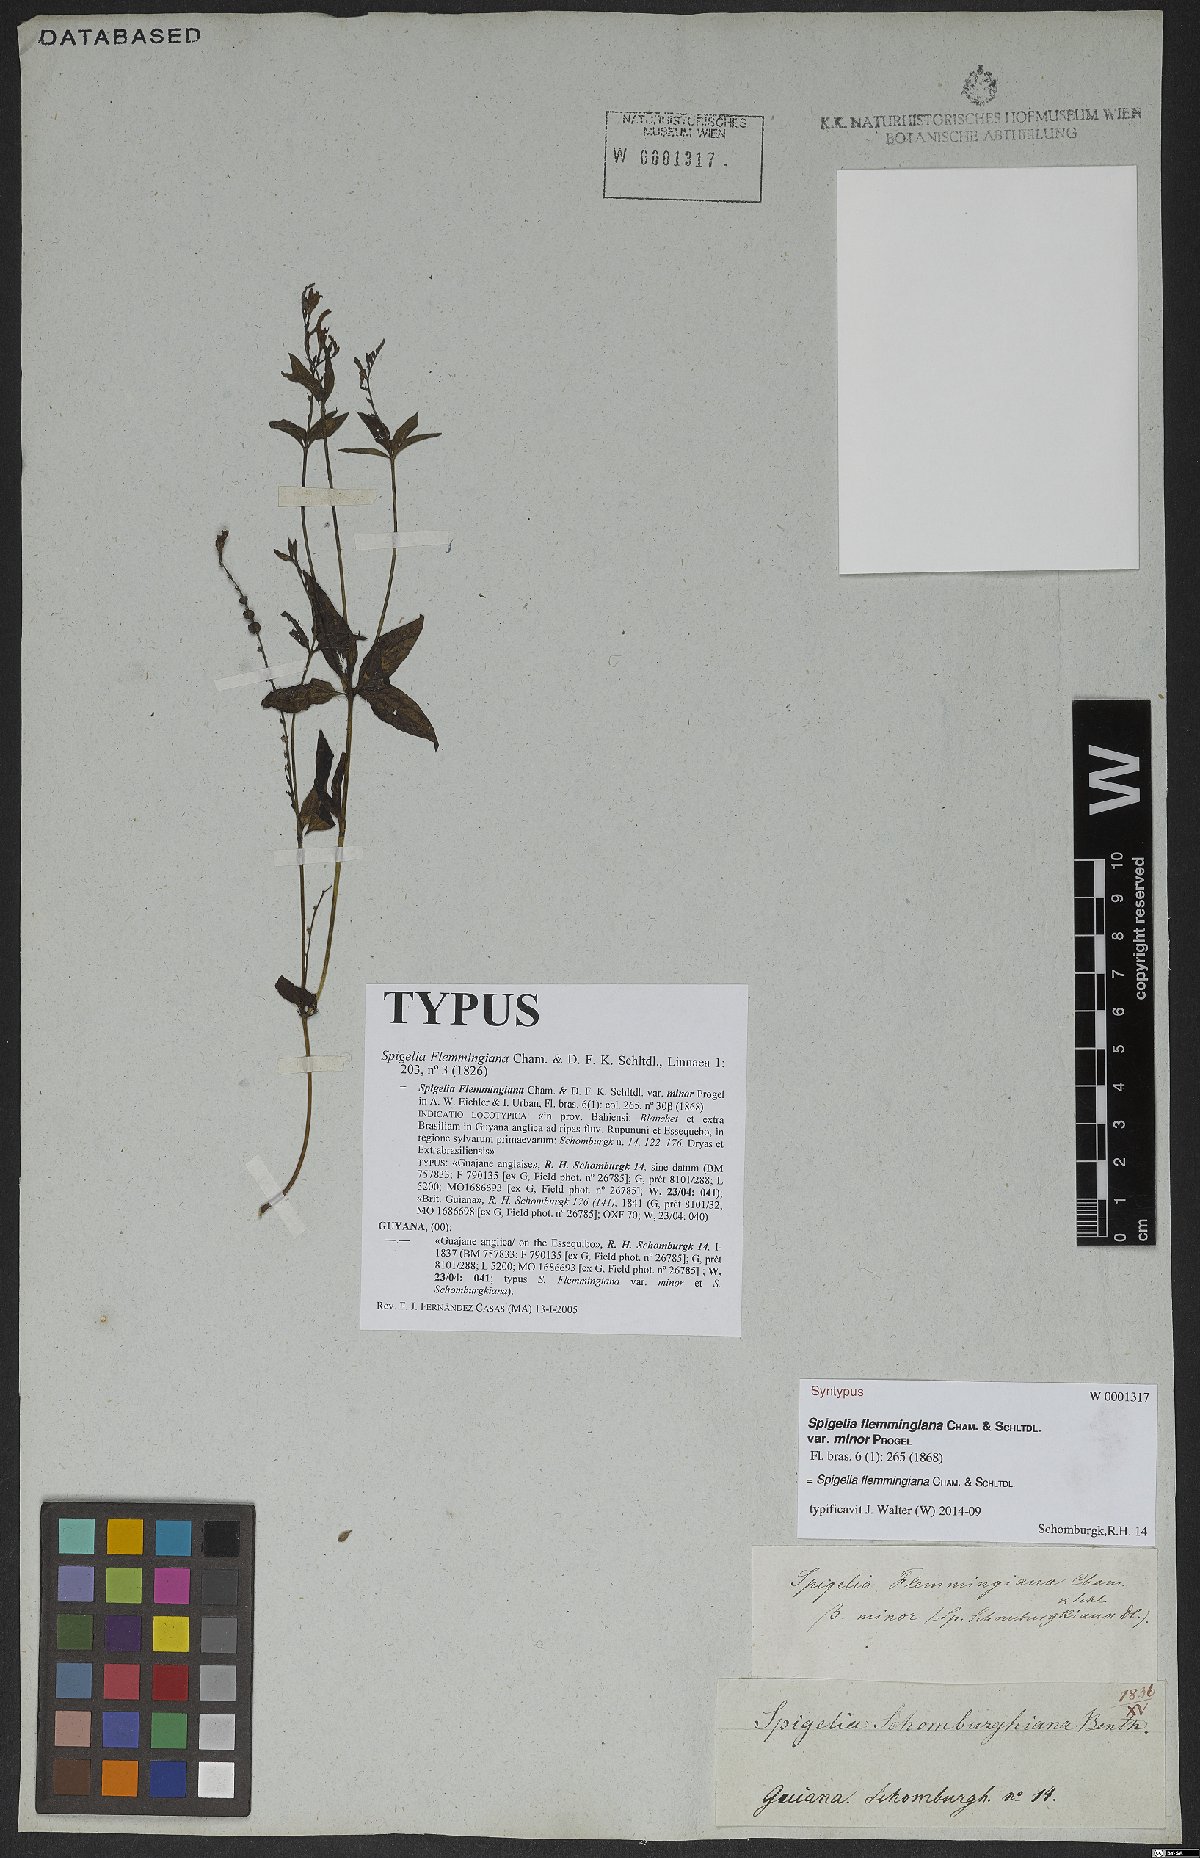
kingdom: Plantae
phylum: Tracheophyta
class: Magnoliopsida
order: Gentianales
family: Loganiaceae
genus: Spigelia
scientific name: Spigelia flemmingiana
